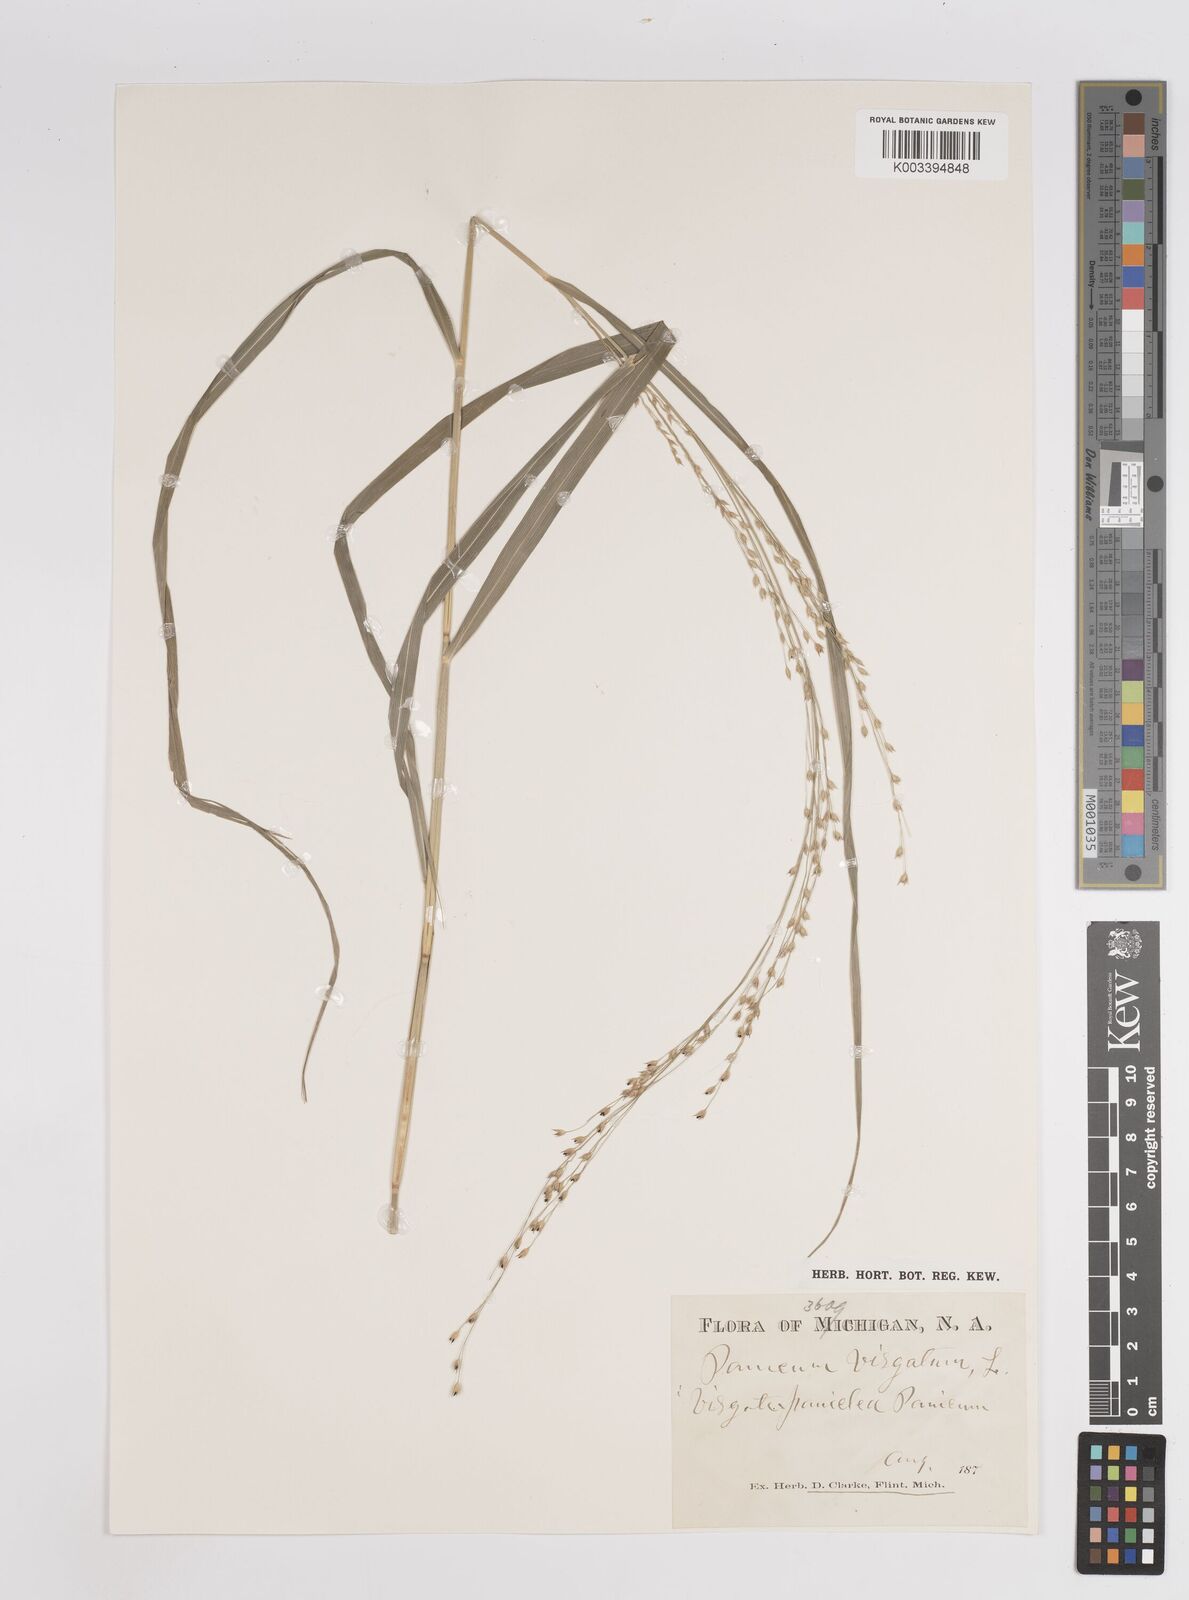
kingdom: Plantae
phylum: Tracheophyta
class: Liliopsida
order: Poales
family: Poaceae
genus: Panicum
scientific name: Panicum virgatum
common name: Switchgrass
